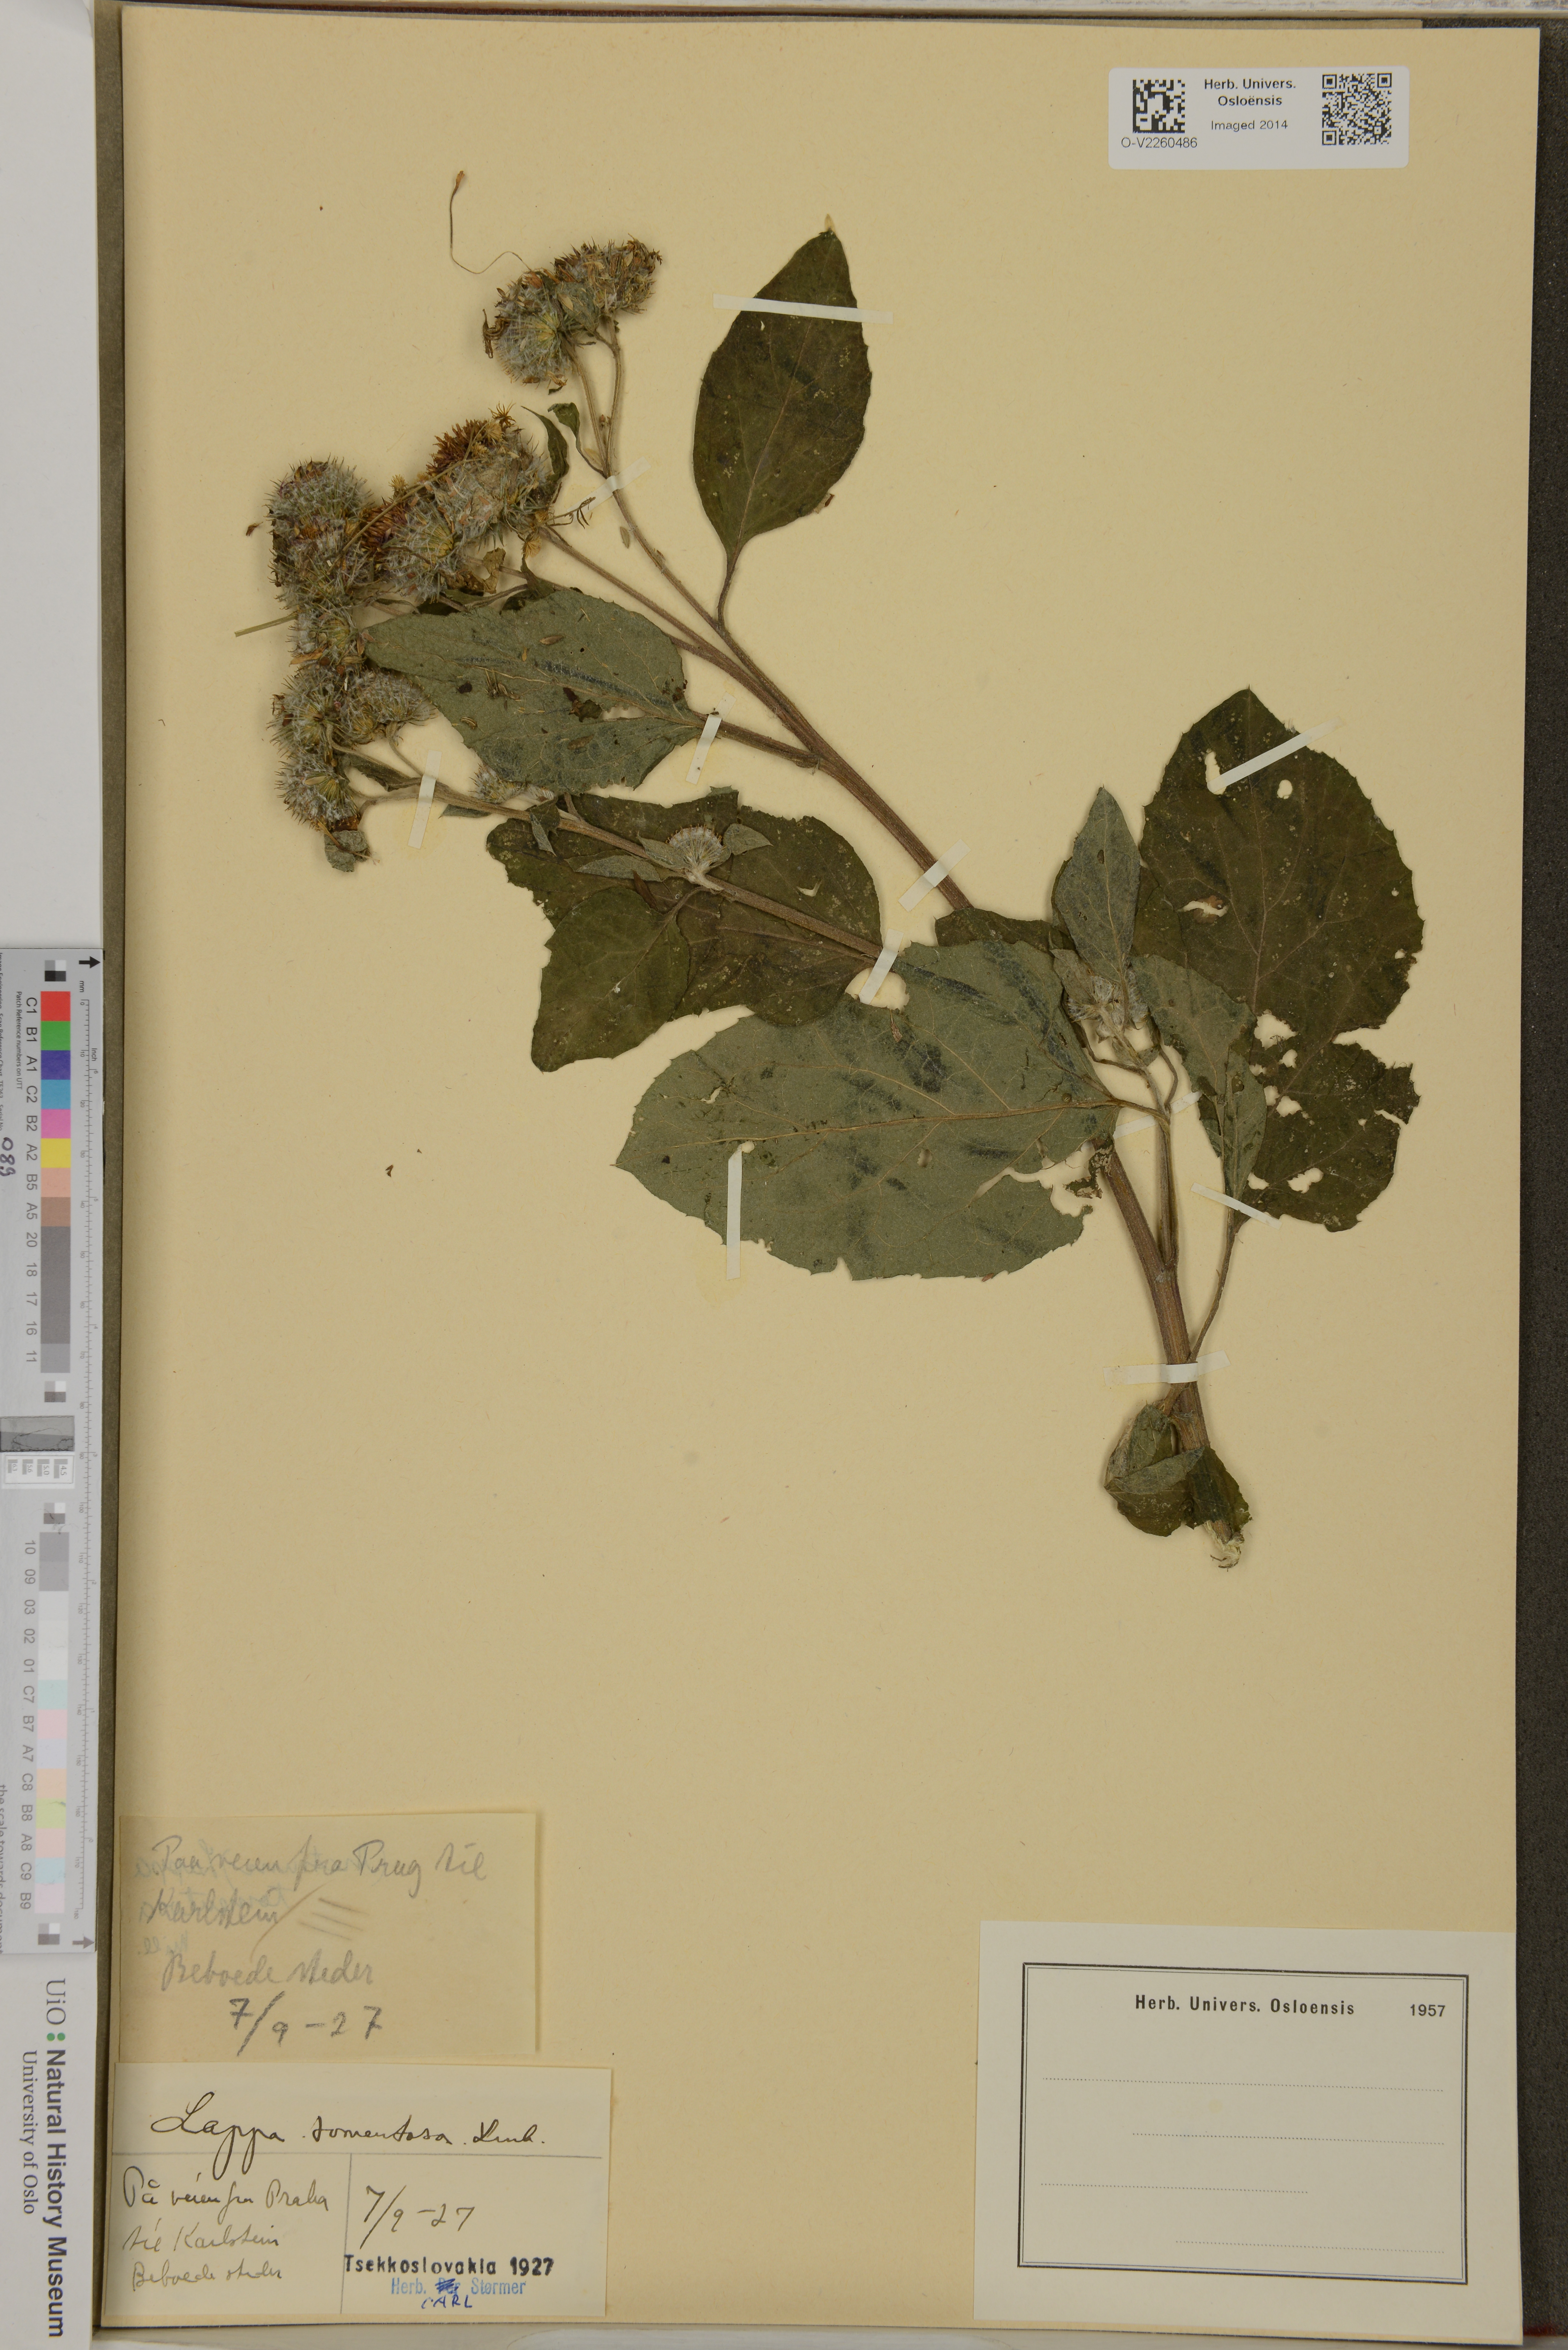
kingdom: Plantae
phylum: Tracheophyta
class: Magnoliopsida
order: Asterales
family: Asteraceae
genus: Arctium
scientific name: Arctium tomentosum
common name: Woolly burdock
